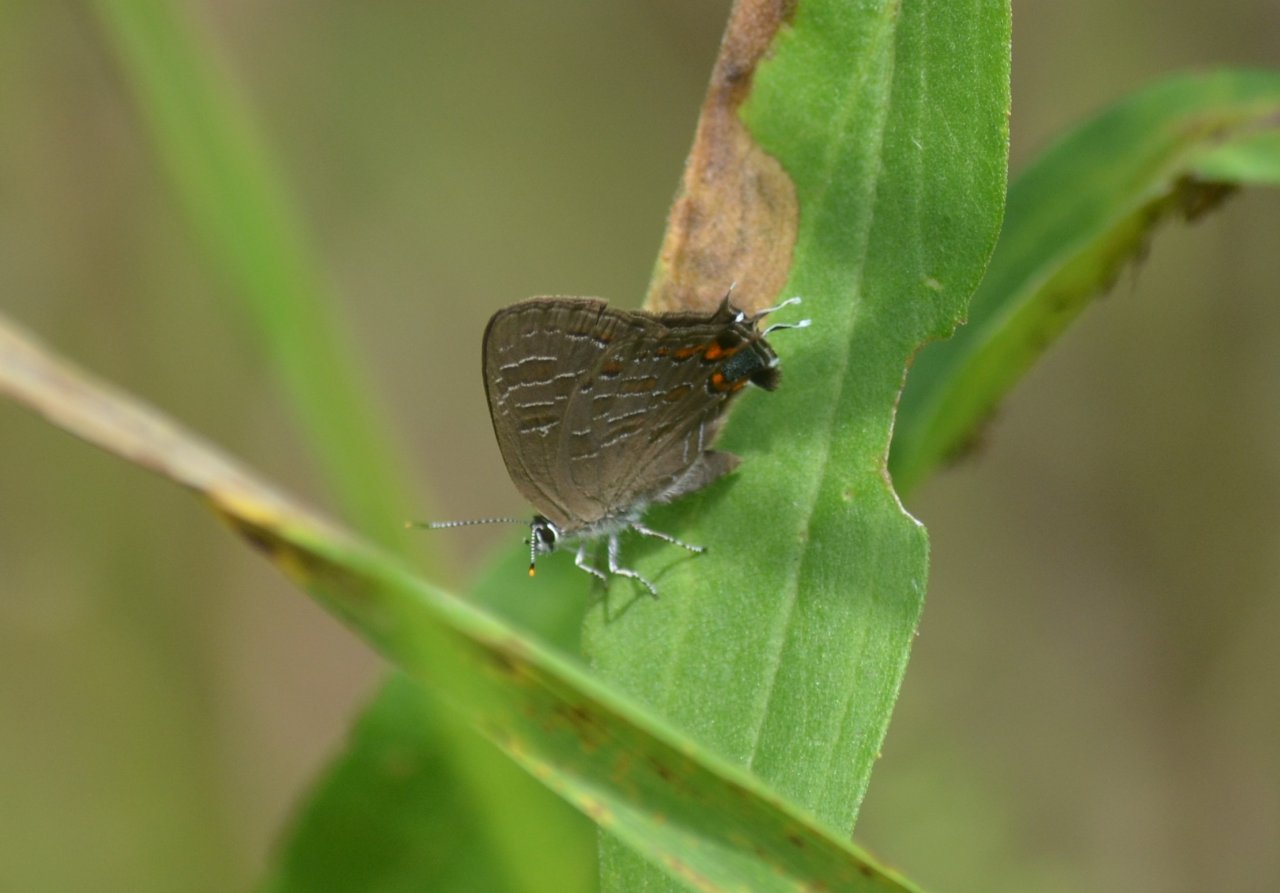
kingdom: Animalia
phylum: Arthropoda
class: Insecta
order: Lepidoptera
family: Lycaenidae
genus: Satyrium
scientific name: Satyrium liparops
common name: Striped Hairstreak
